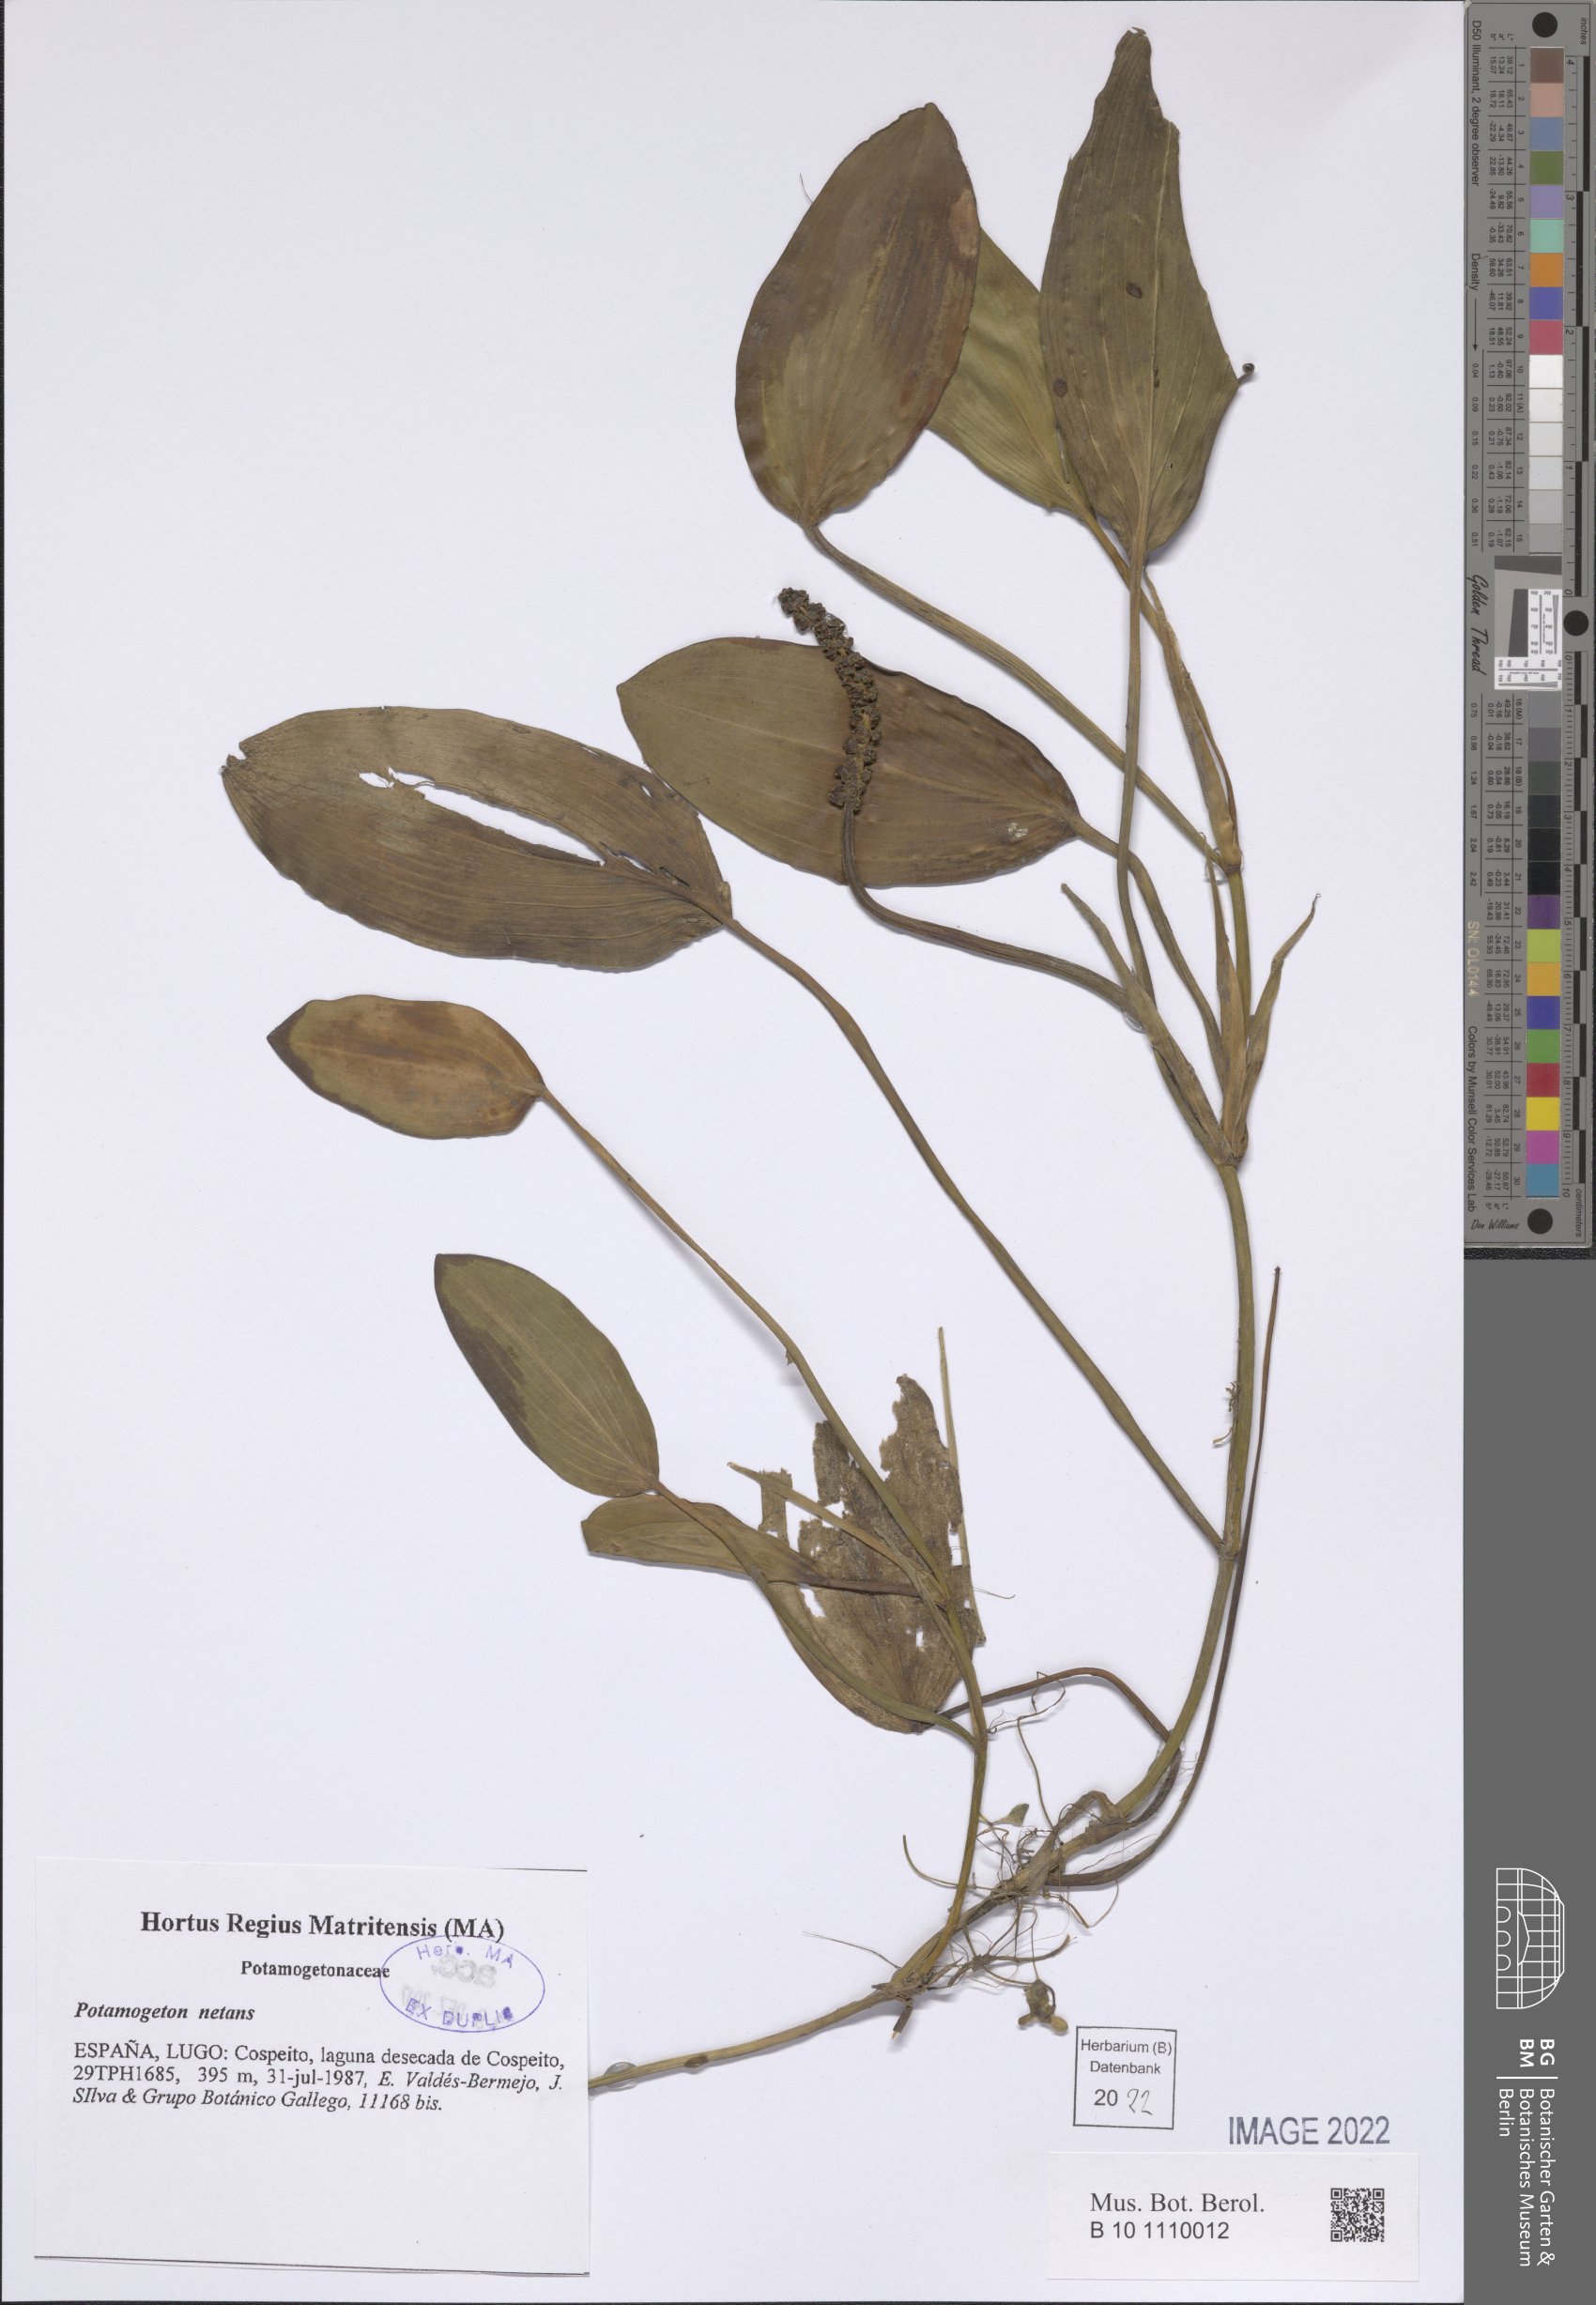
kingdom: Plantae
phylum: Tracheophyta
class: Liliopsida
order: Alismatales
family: Potamogetonaceae
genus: Potamogeton
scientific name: Potamogeton natans
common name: Broad-leaved pondweed
